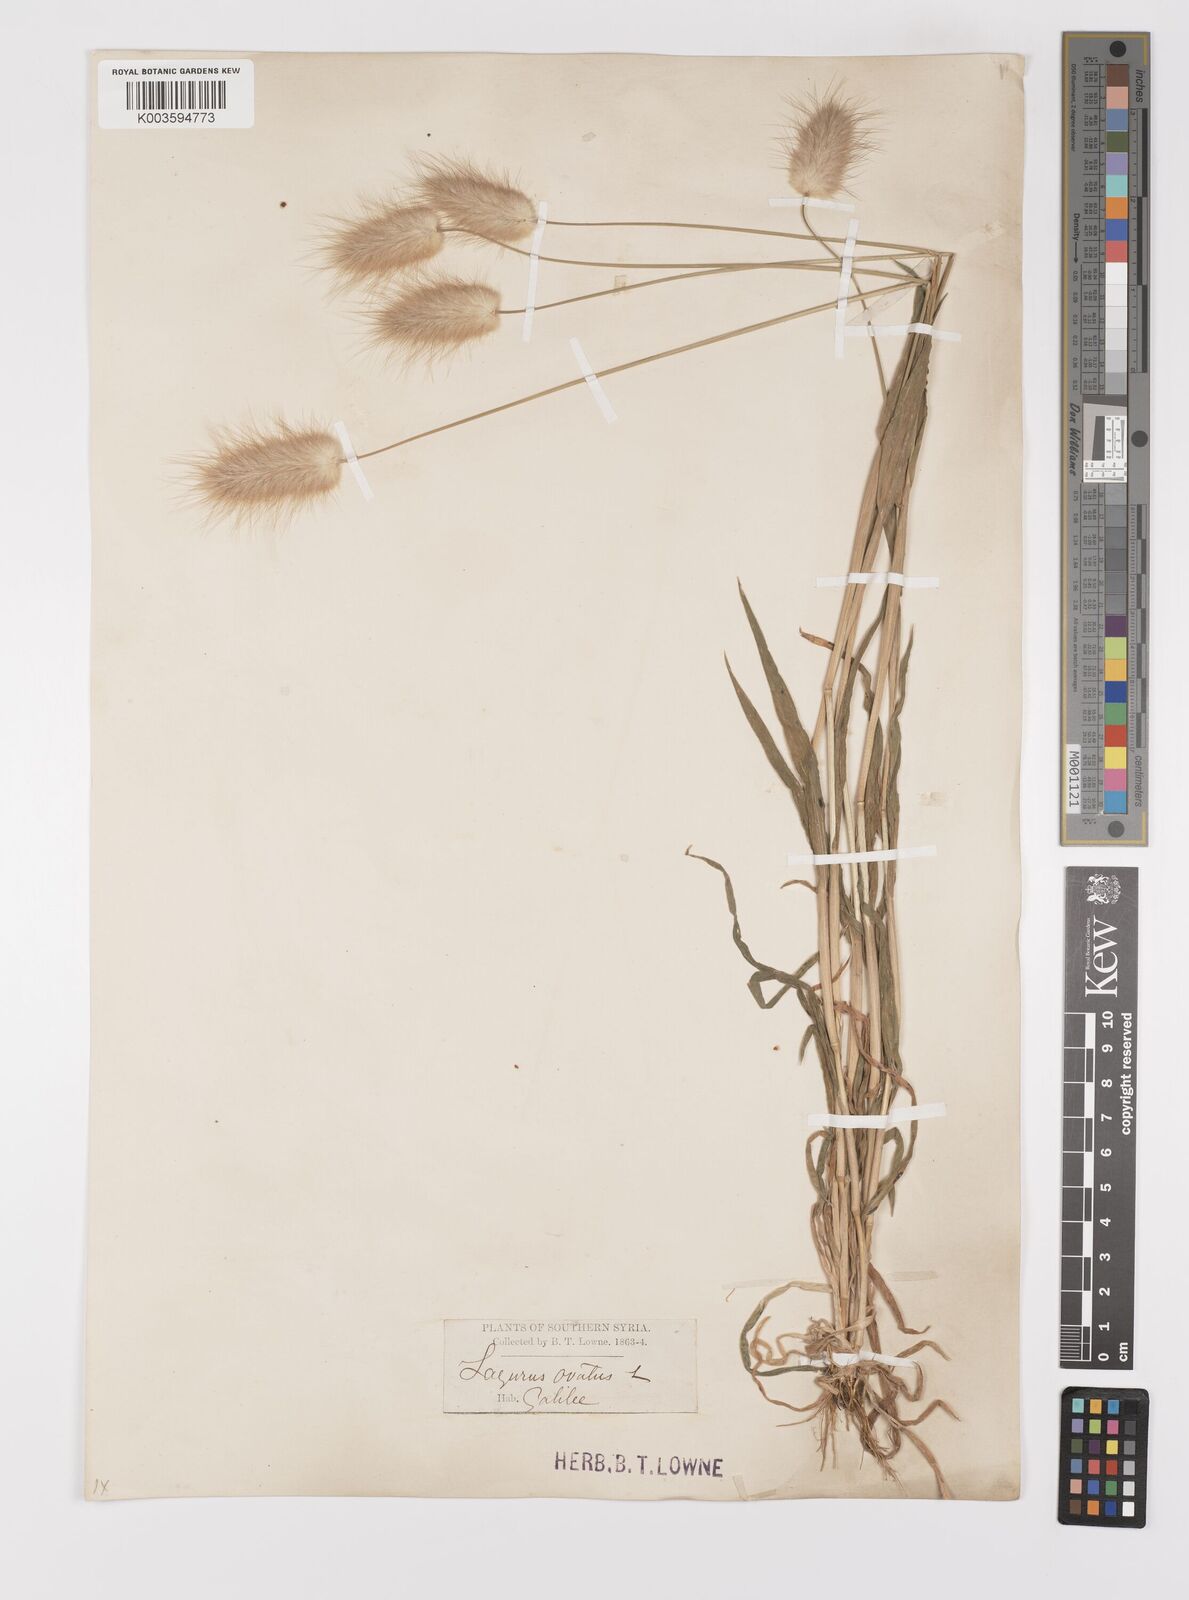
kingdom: Plantae
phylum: Tracheophyta
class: Liliopsida
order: Poales
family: Poaceae
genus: Lagurus
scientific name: Lagurus ovatus
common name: Hare's-tail
